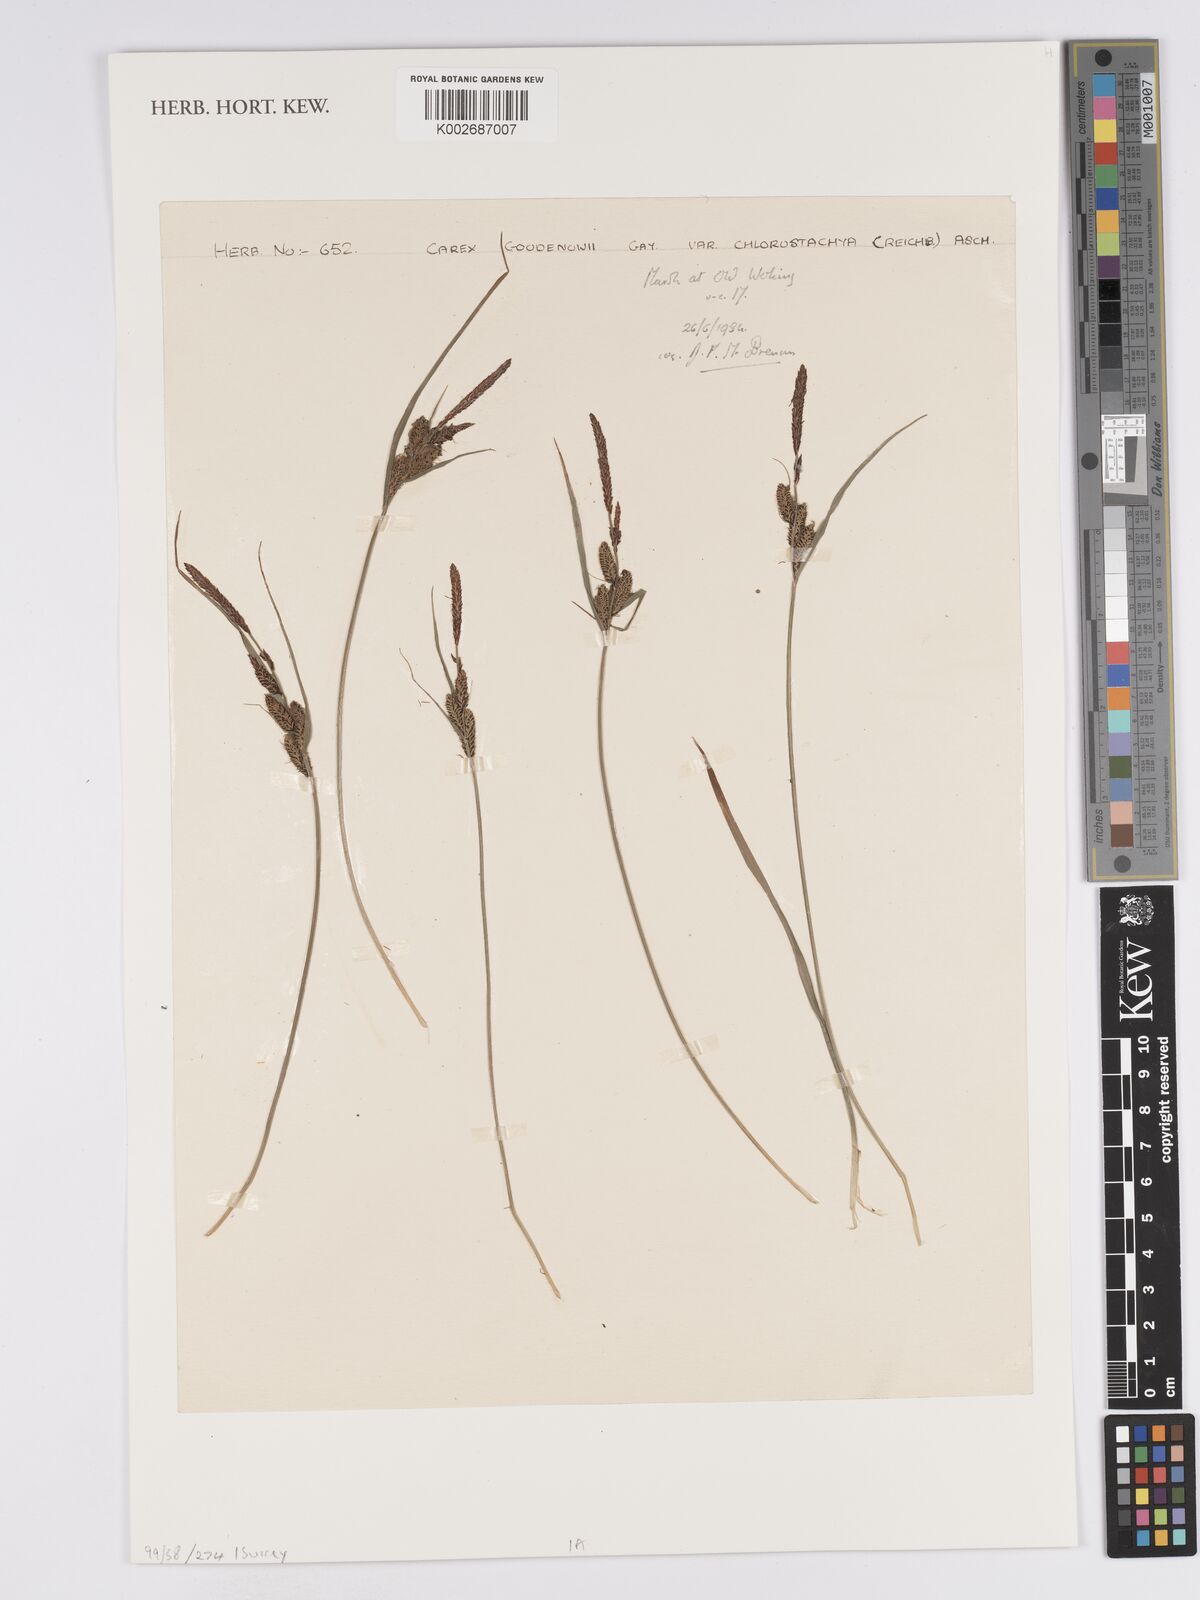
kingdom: Plantae
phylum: Tracheophyta
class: Liliopsida
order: Poales
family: Cyperaceae
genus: Carex
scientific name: Carex nigra
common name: Common sedge
